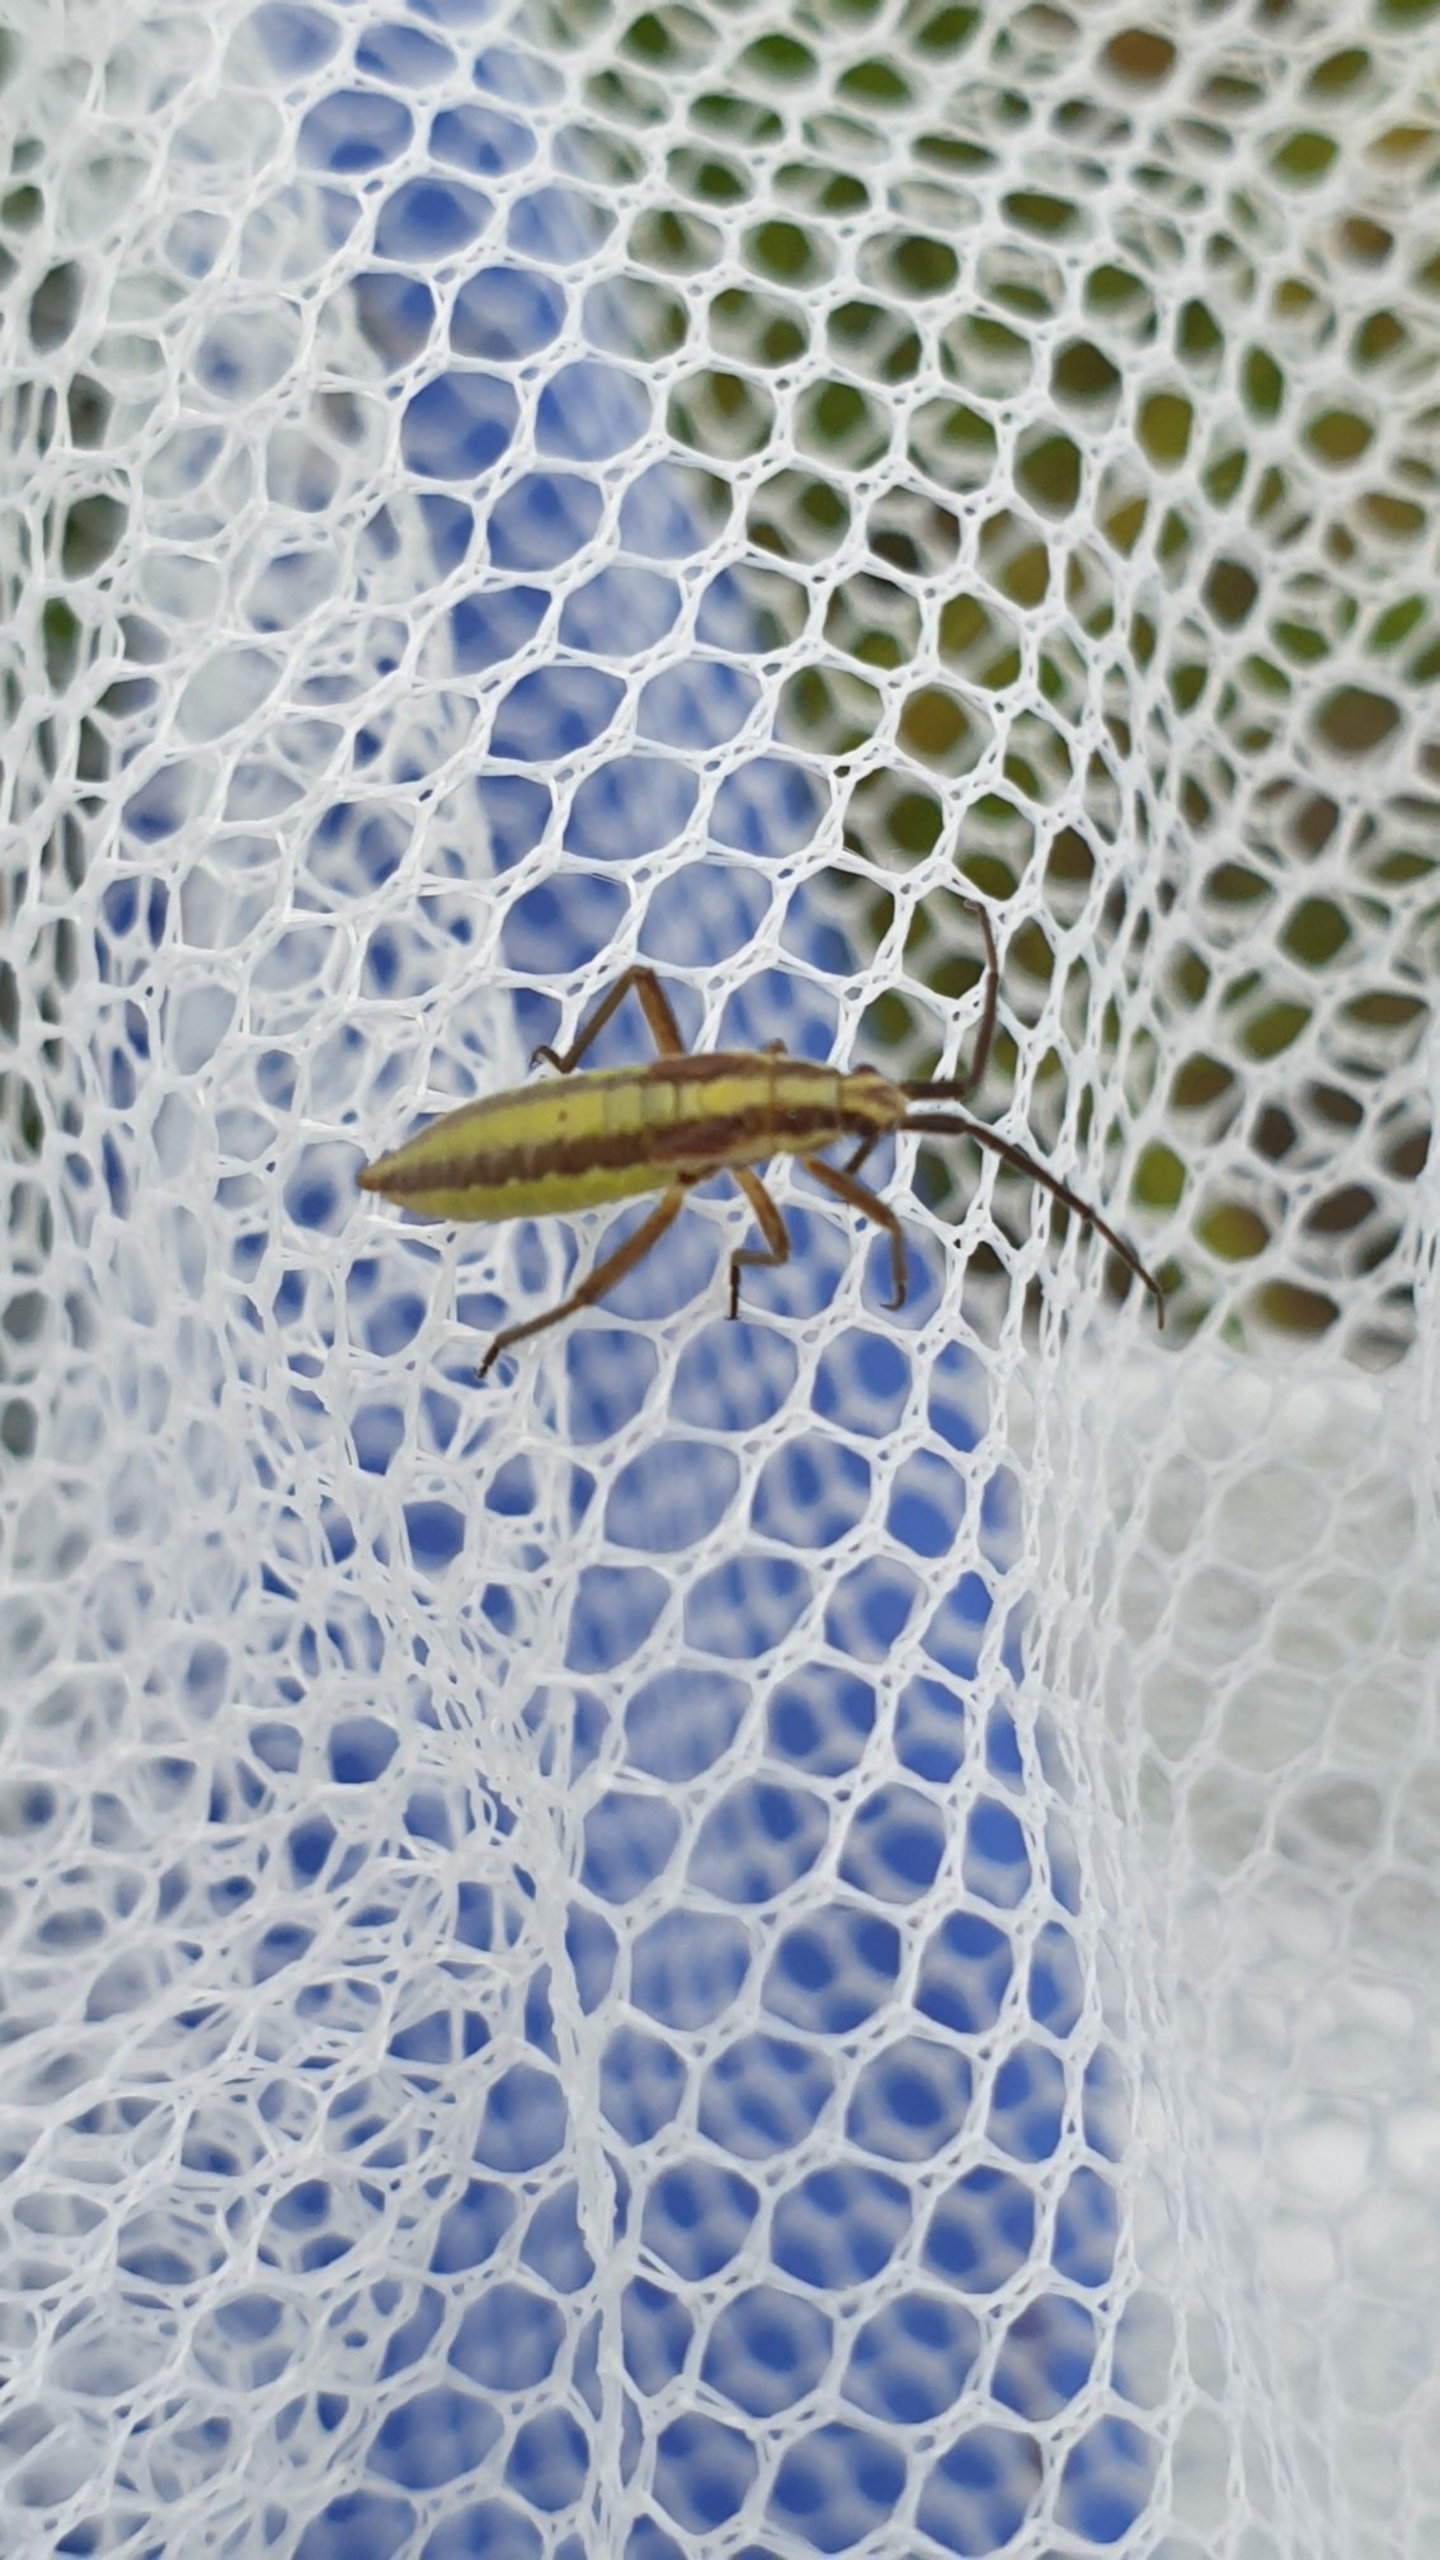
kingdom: Animalia
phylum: Arthropoda
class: Insecta
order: Hemiptera
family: Miridae
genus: Leptopterna
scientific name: Leptopterna ferrugata
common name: Rødbrun græstæge
